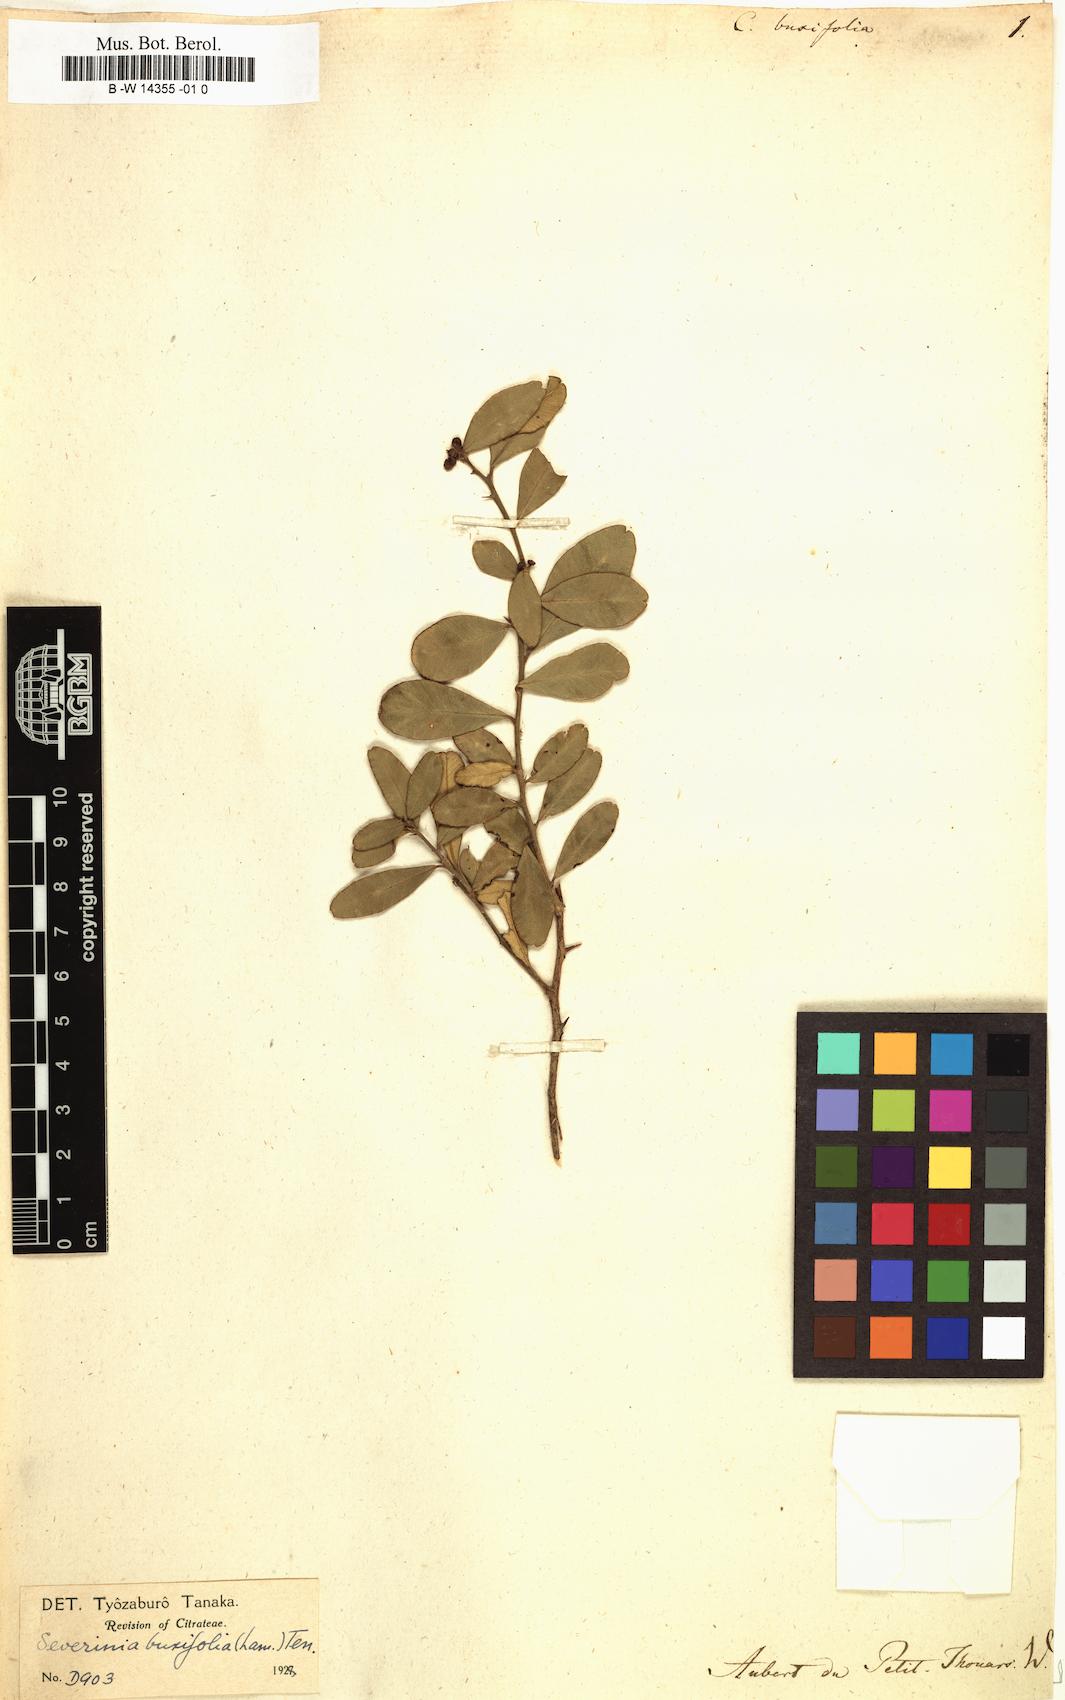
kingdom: Plantae
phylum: Tracheophyta
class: Magnoliopsida
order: Sapindales
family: Rutaceae
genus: Atalantia
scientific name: Atalantia buxifolia
